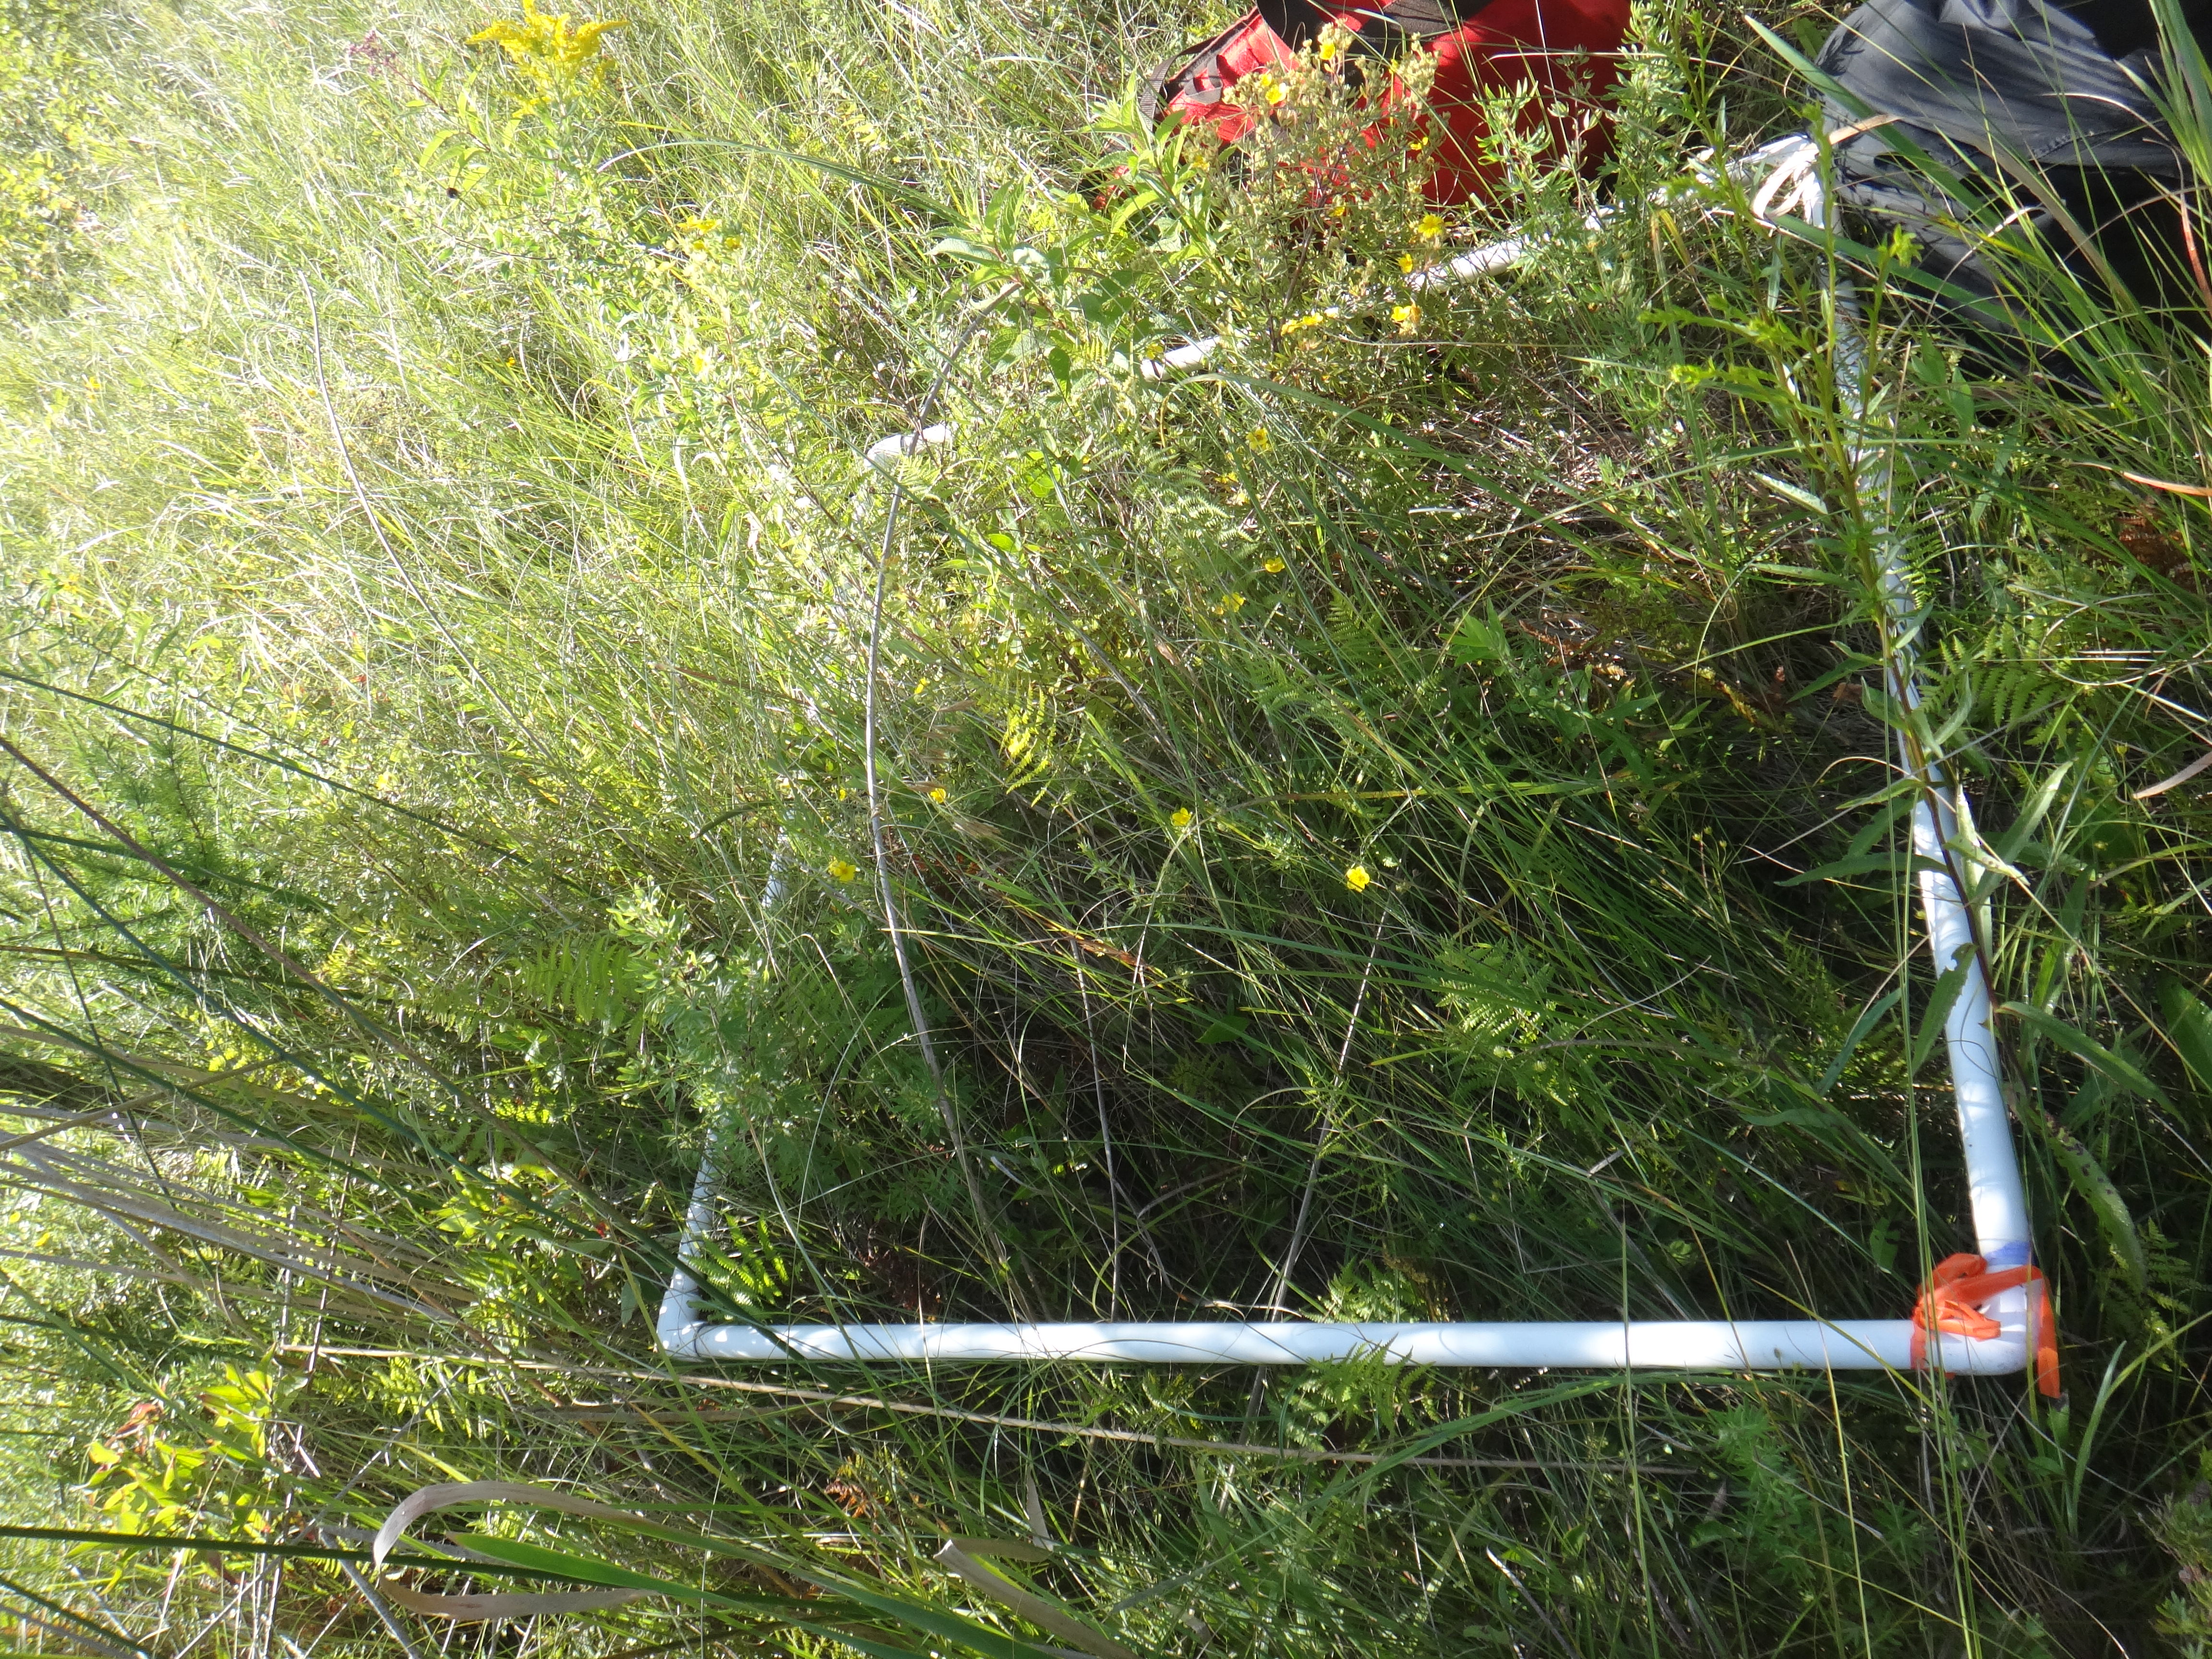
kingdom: Plantae
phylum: Tracheophyta
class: Magnoliopsida
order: Asterales
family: Asteraceae
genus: Solidago
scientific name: Solidago uliginosa
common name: Bog goldenrod
